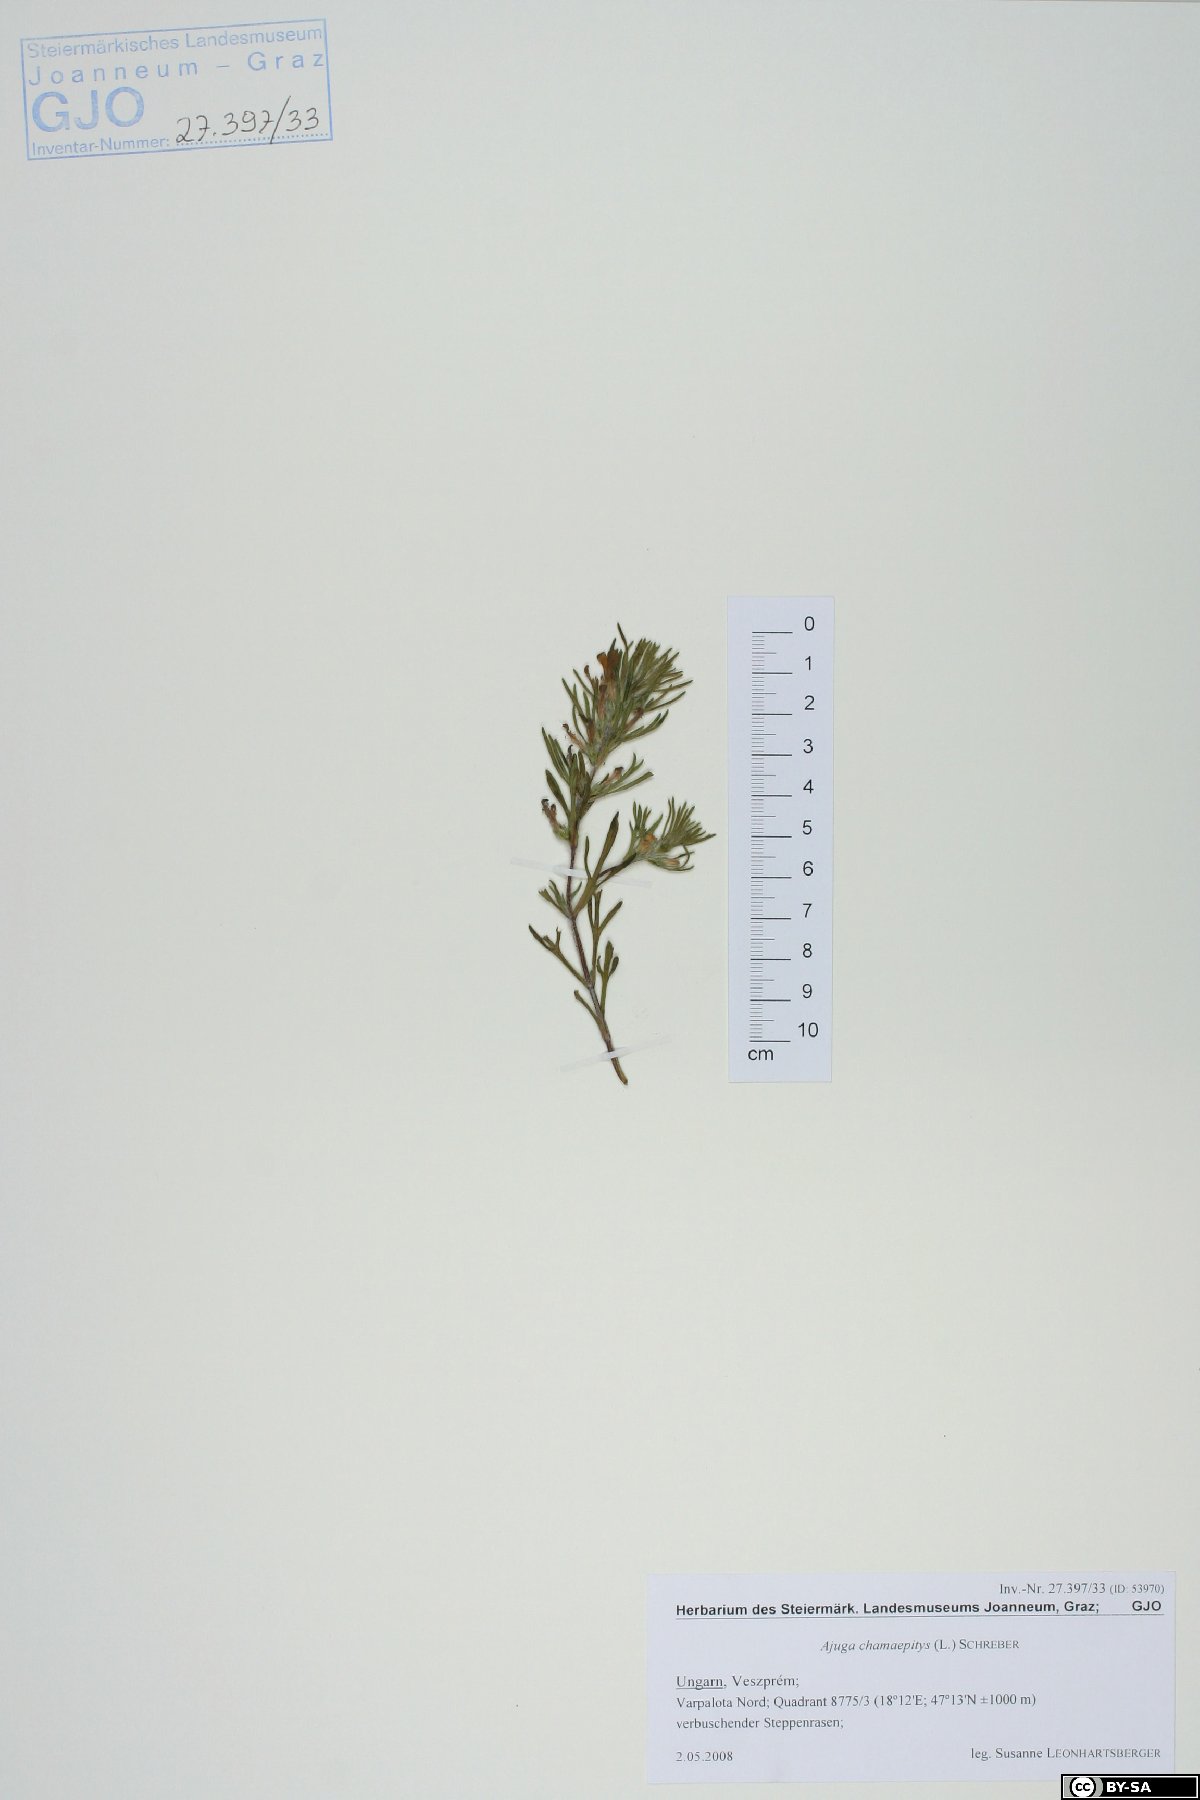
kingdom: Plantae
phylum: Tracheophyta
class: Magnoliopsida
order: Lamiales
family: Lamiaceae
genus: Ajuga
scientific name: Ajuga chamaepitys
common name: Ground-pine
